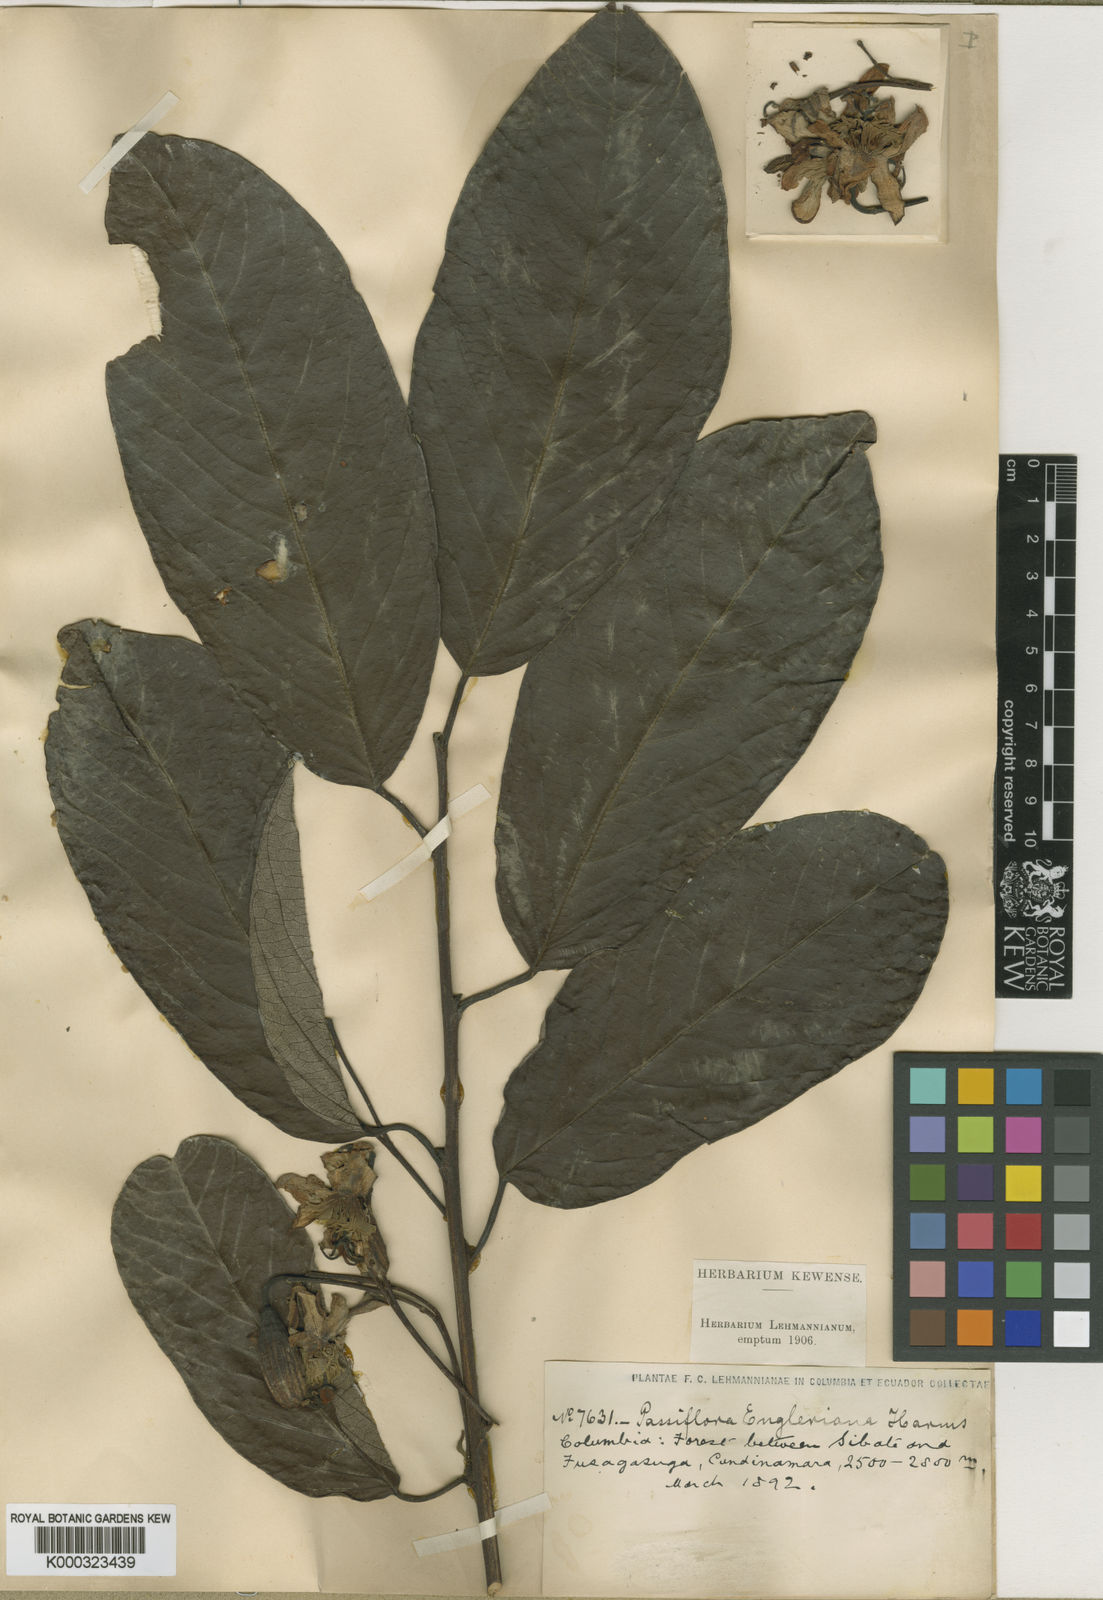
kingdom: Plantae
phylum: Tracheophyta
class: Magnoliopsida
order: Malpighiales
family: Passifloraceae
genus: Passiflora
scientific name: Passiflora engleriana
